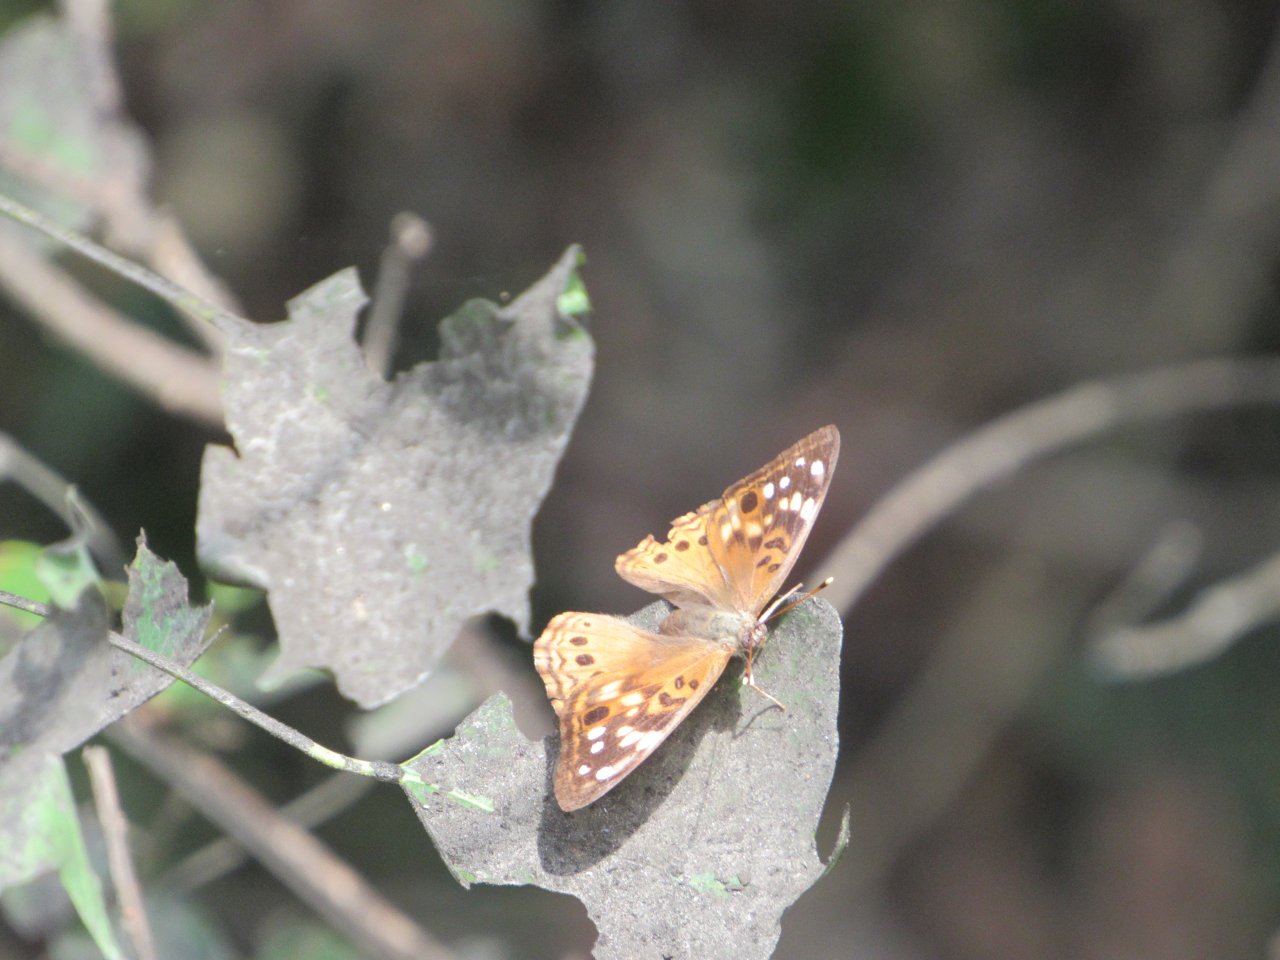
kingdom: Animalia
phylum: Arthropoda
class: Insecta
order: Lepidoptera
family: Nymphalidae
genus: Asterocampa
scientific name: Asterocampa celtis
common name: Hackberry Emperor
